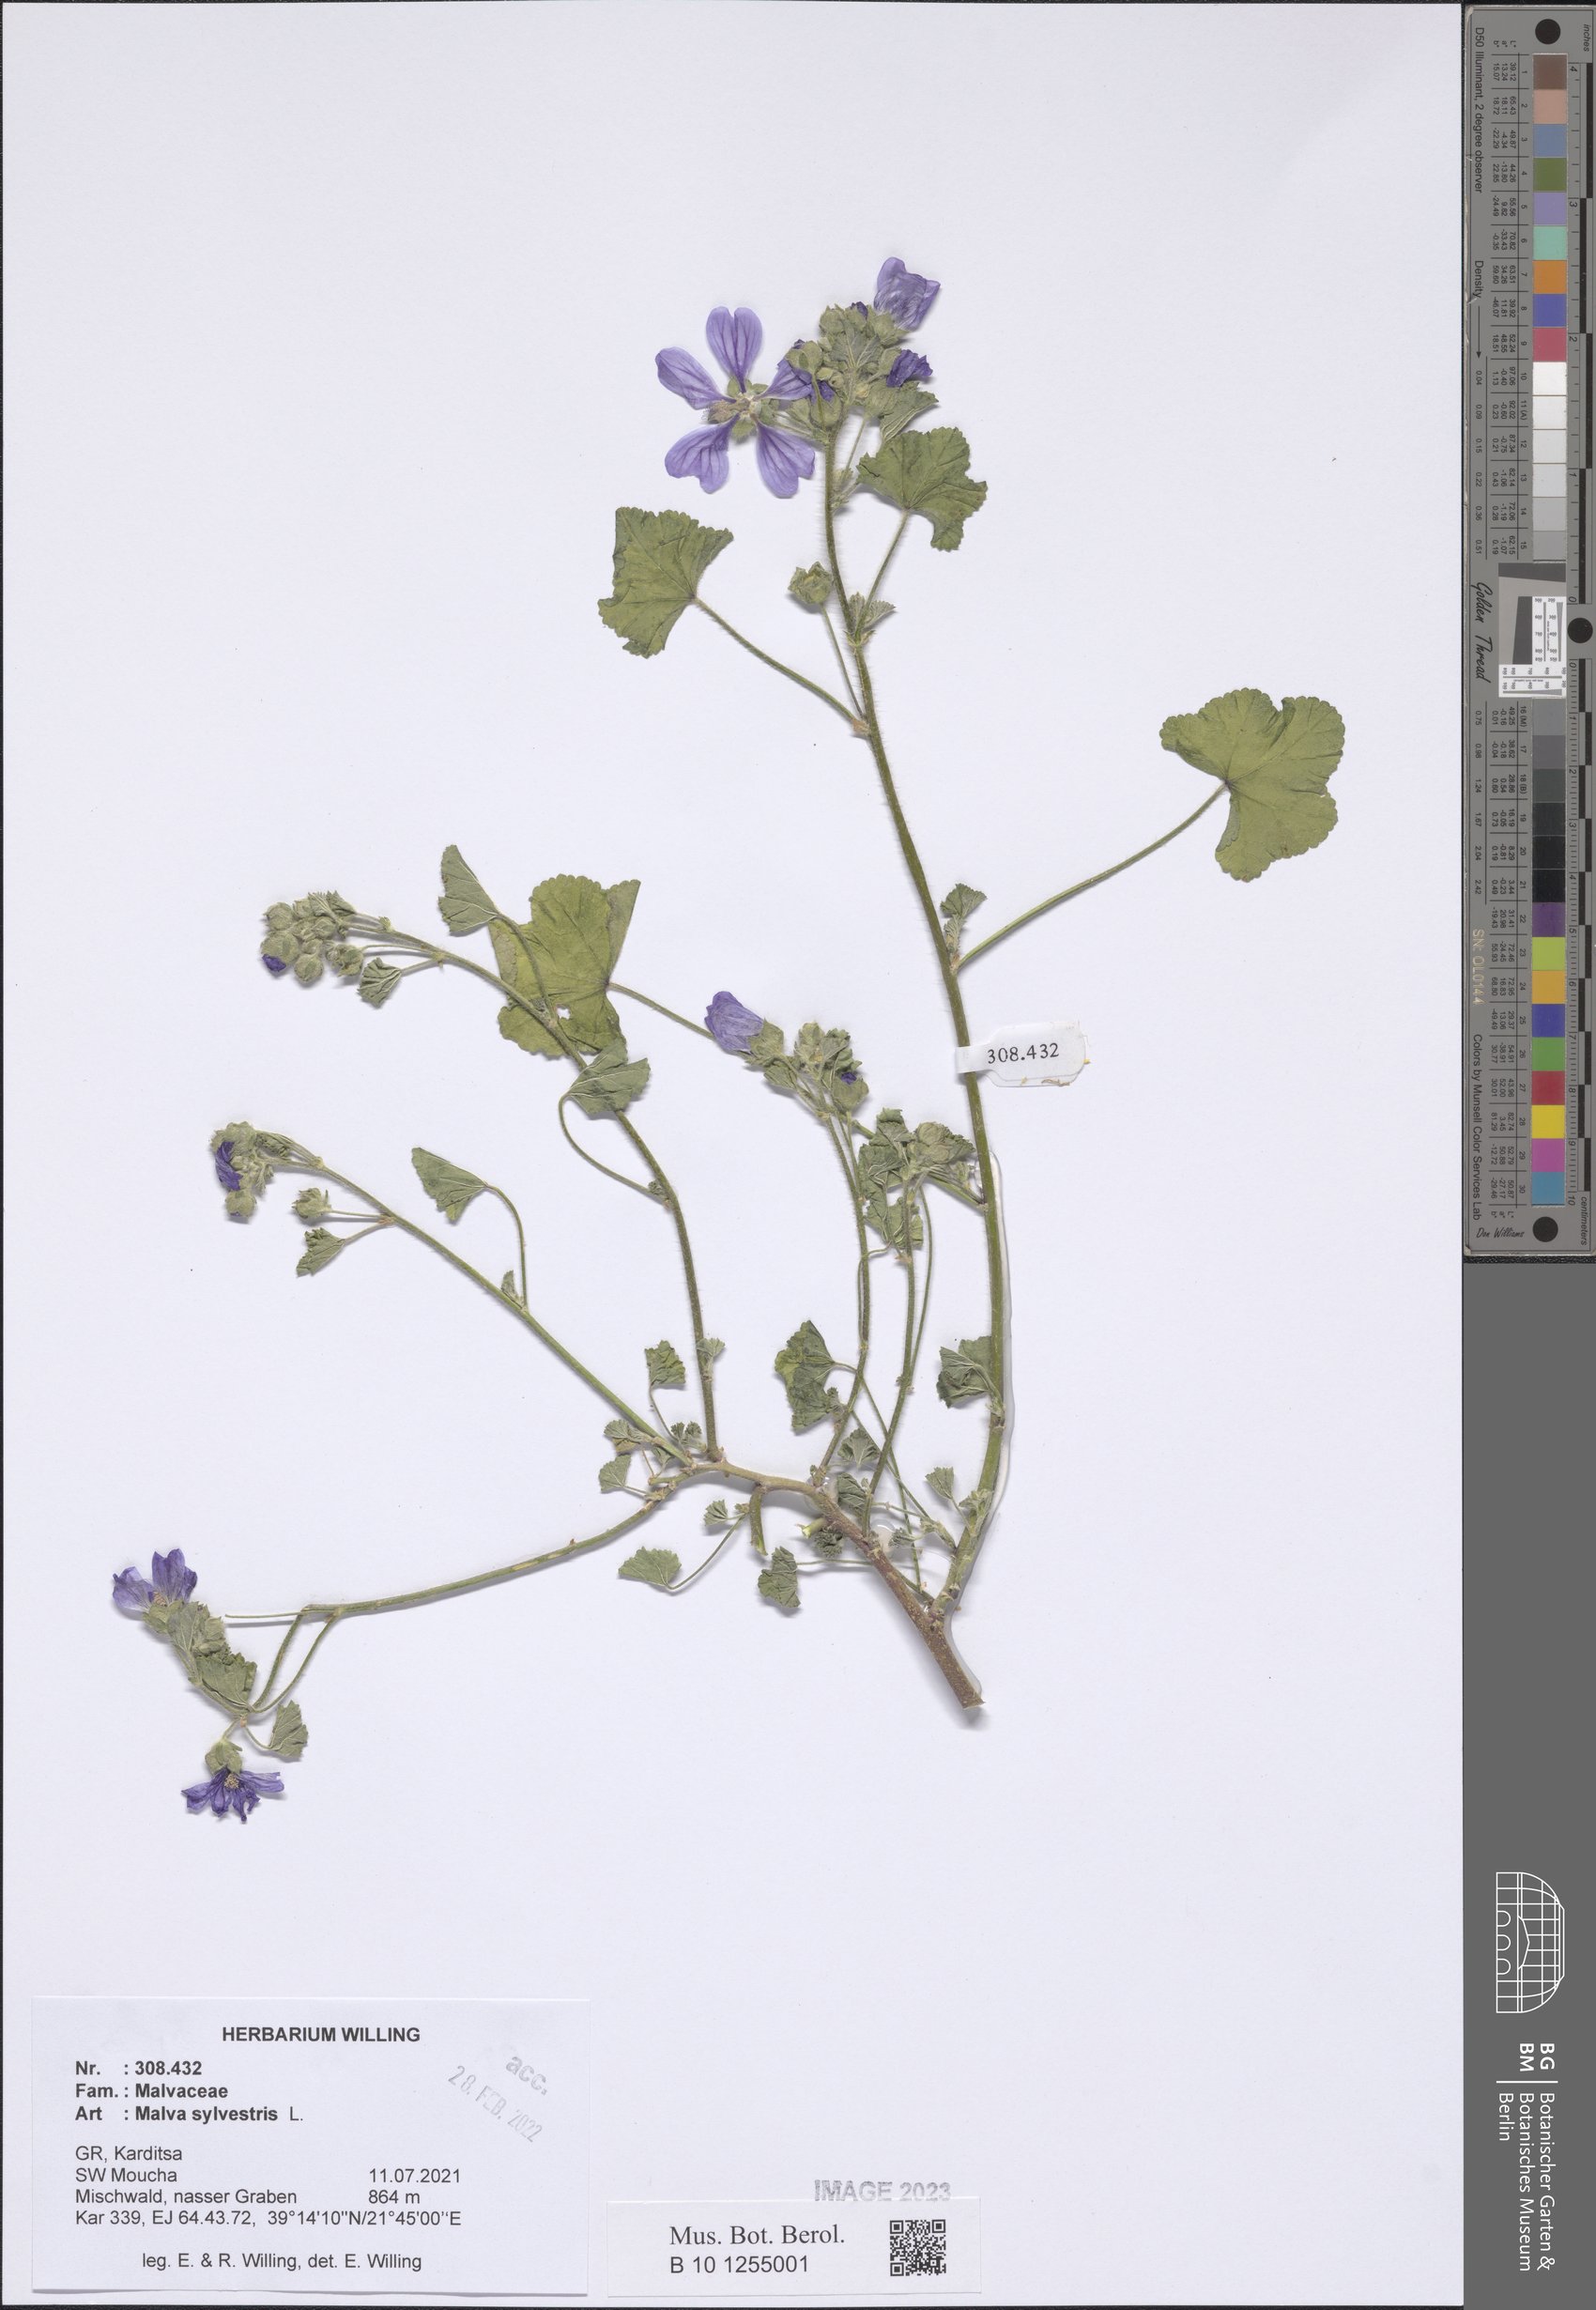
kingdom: Plantae
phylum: Tracheophyta
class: Magnoliopsida
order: Malvales
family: Malvaceae
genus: Malva
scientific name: Malva sylvestris
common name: Common mallow
